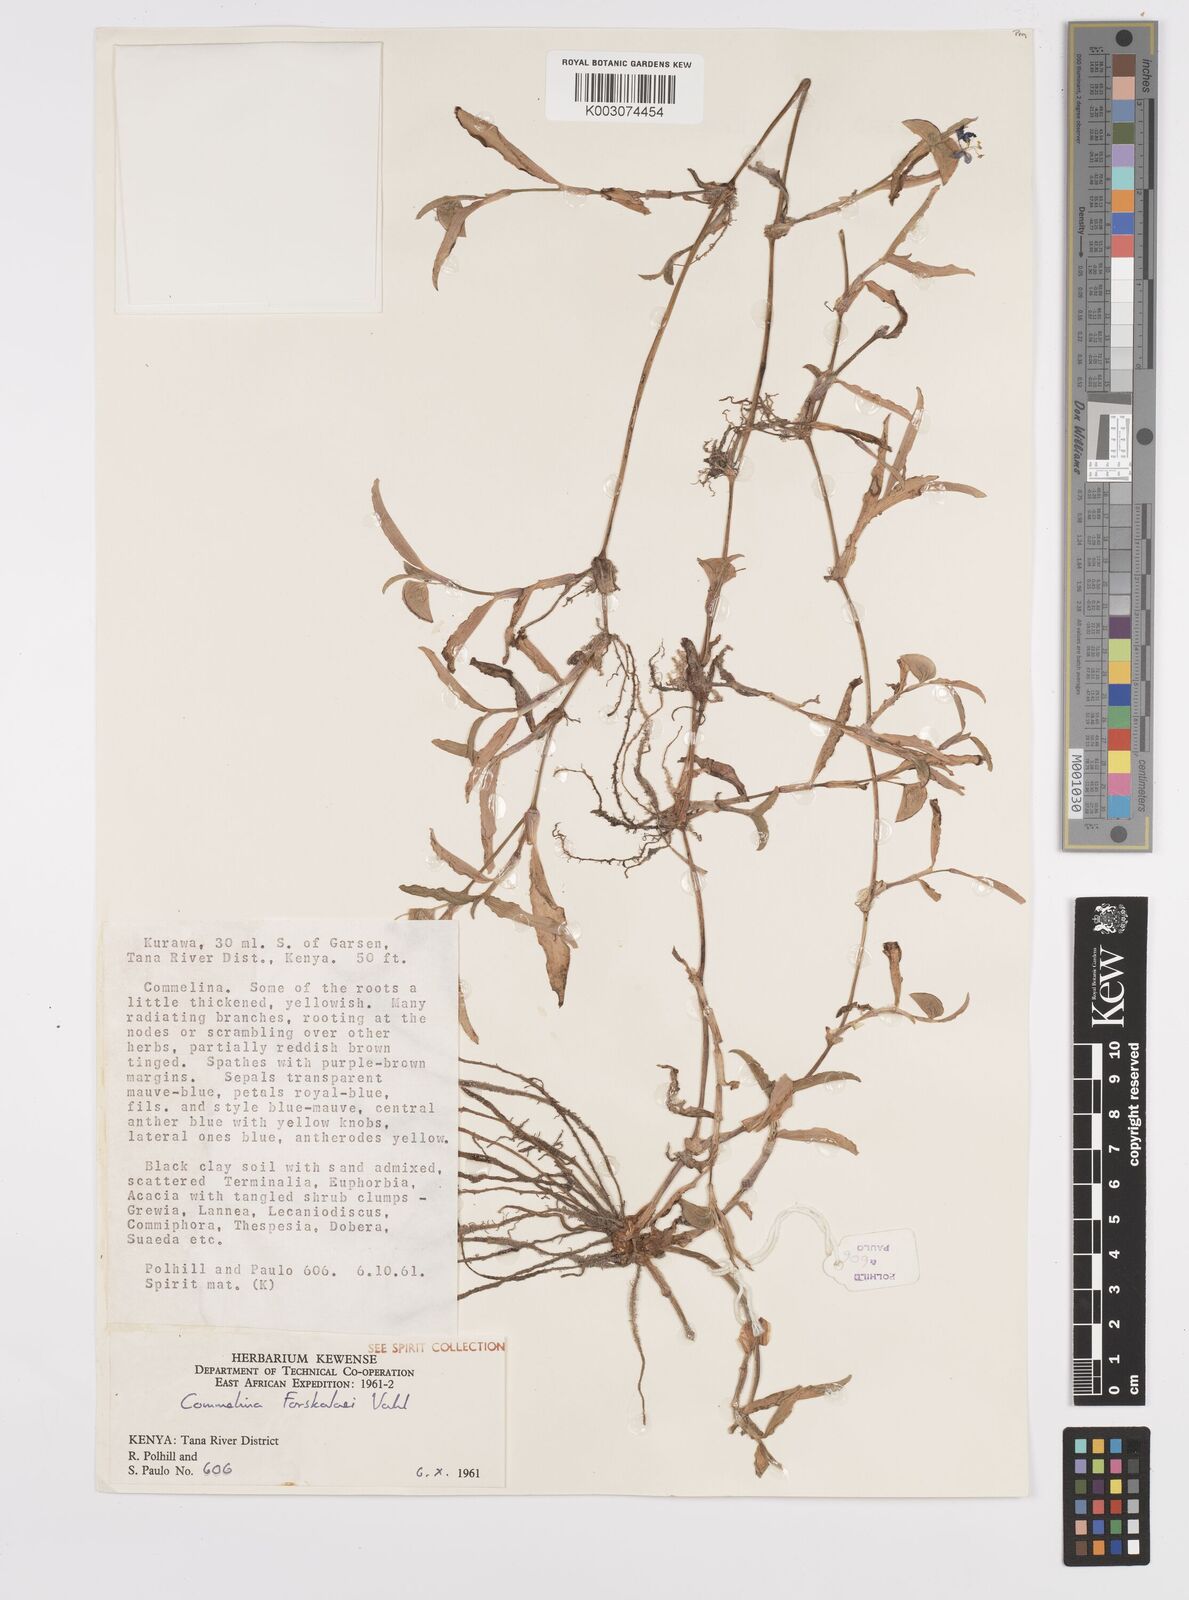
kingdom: Plantae
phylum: Tracheophyta
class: Liliopsida
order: Commelinales
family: Commelinaceae
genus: Commelina
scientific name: Commelina
